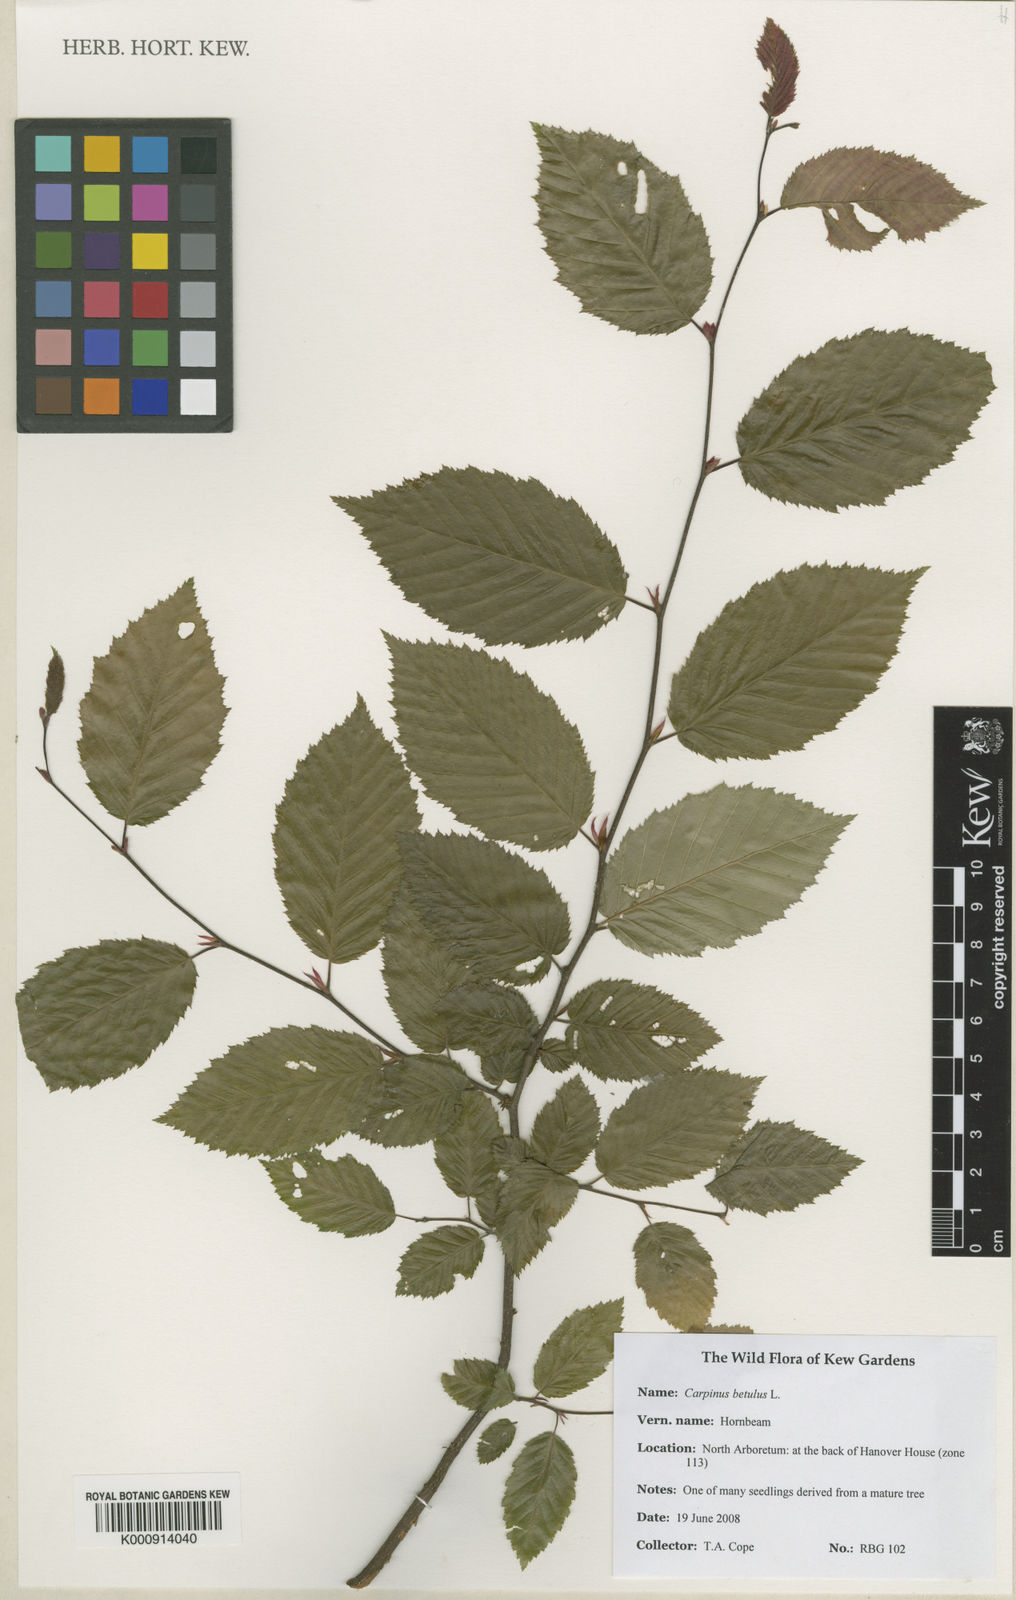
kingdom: Plantae
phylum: Tracheophyta
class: Magnoliopsida
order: Fagales
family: Betulaceae
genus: Carpinus
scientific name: Carpinus betulus
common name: Hornbeam
